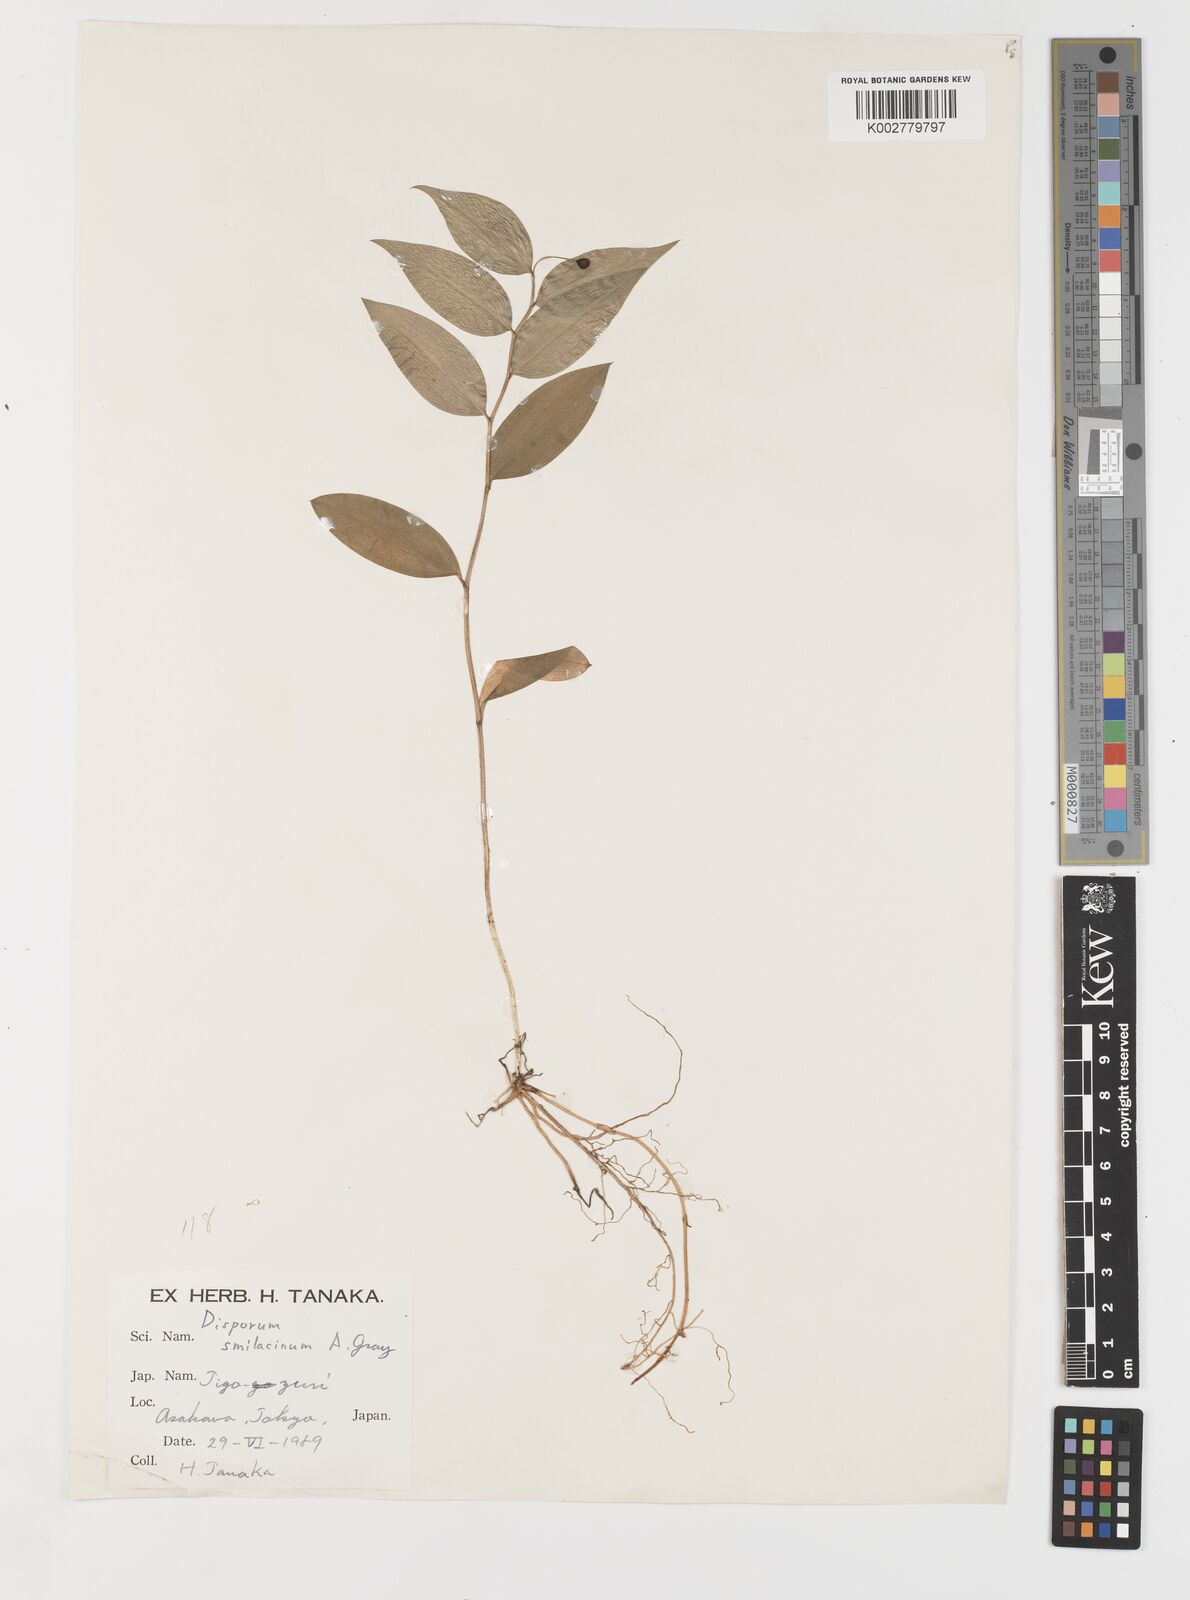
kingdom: Plantae
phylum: Tracheophyta
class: Liliopsida
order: Liliales
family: Colchicaceae
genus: Disporum
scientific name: Disporum smilacinum
